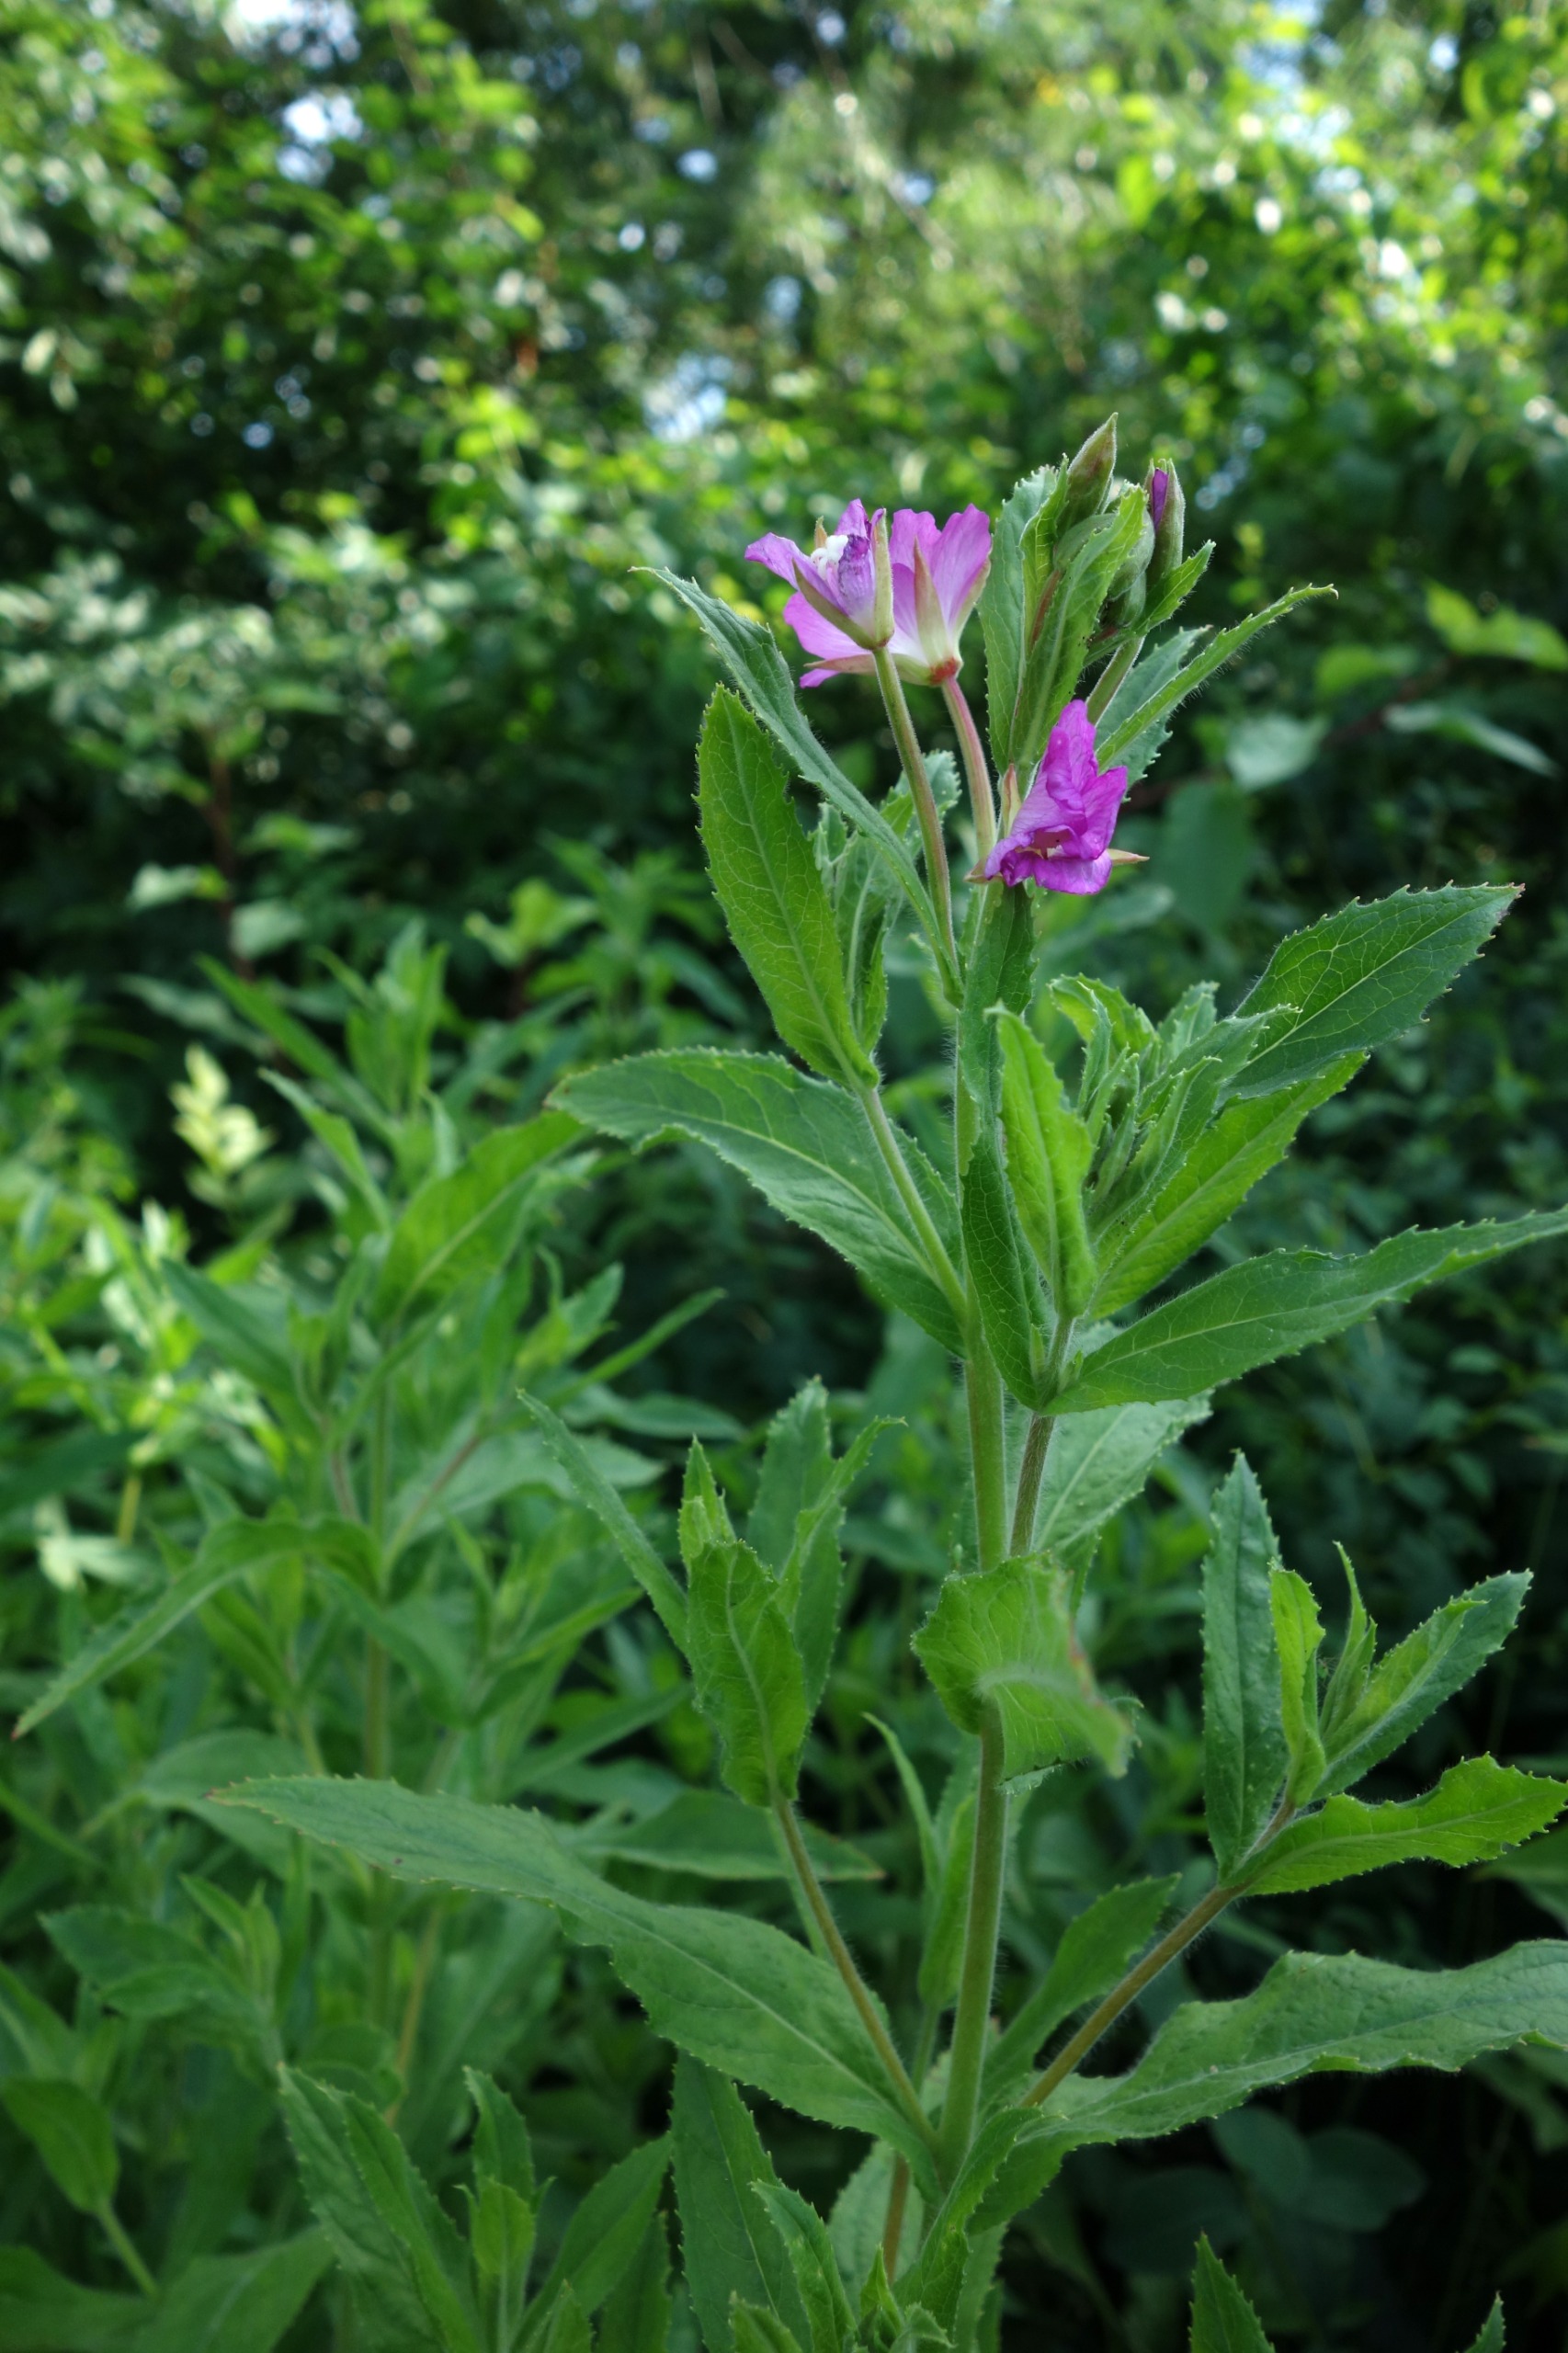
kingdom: Plantae
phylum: Tracheophyta
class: Magnoliopsida
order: Myrtales
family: Onagraceae
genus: Epilobium
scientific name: Epilobium hirsutum
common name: Lådden dueurt
